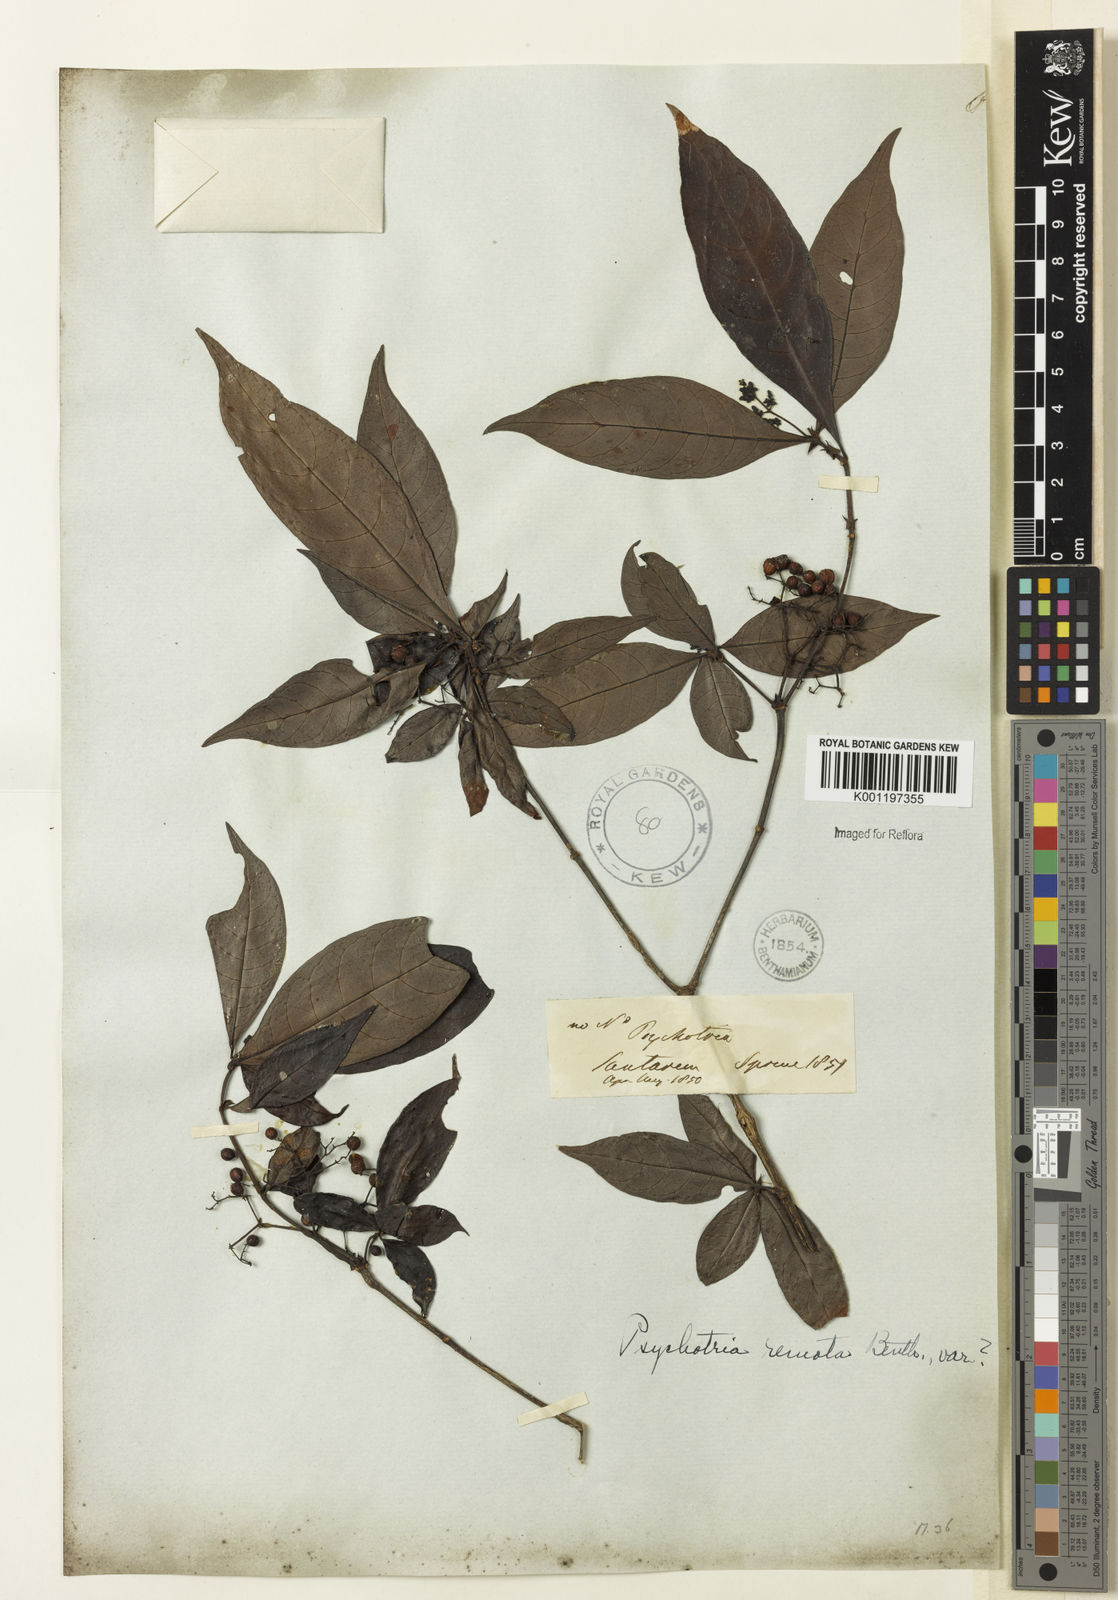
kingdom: Plantae
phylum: Tracheophyta
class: Magnoliopsida
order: Gentianales
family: Rubiaceae
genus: Psychotria
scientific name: Psychotria borjensis
